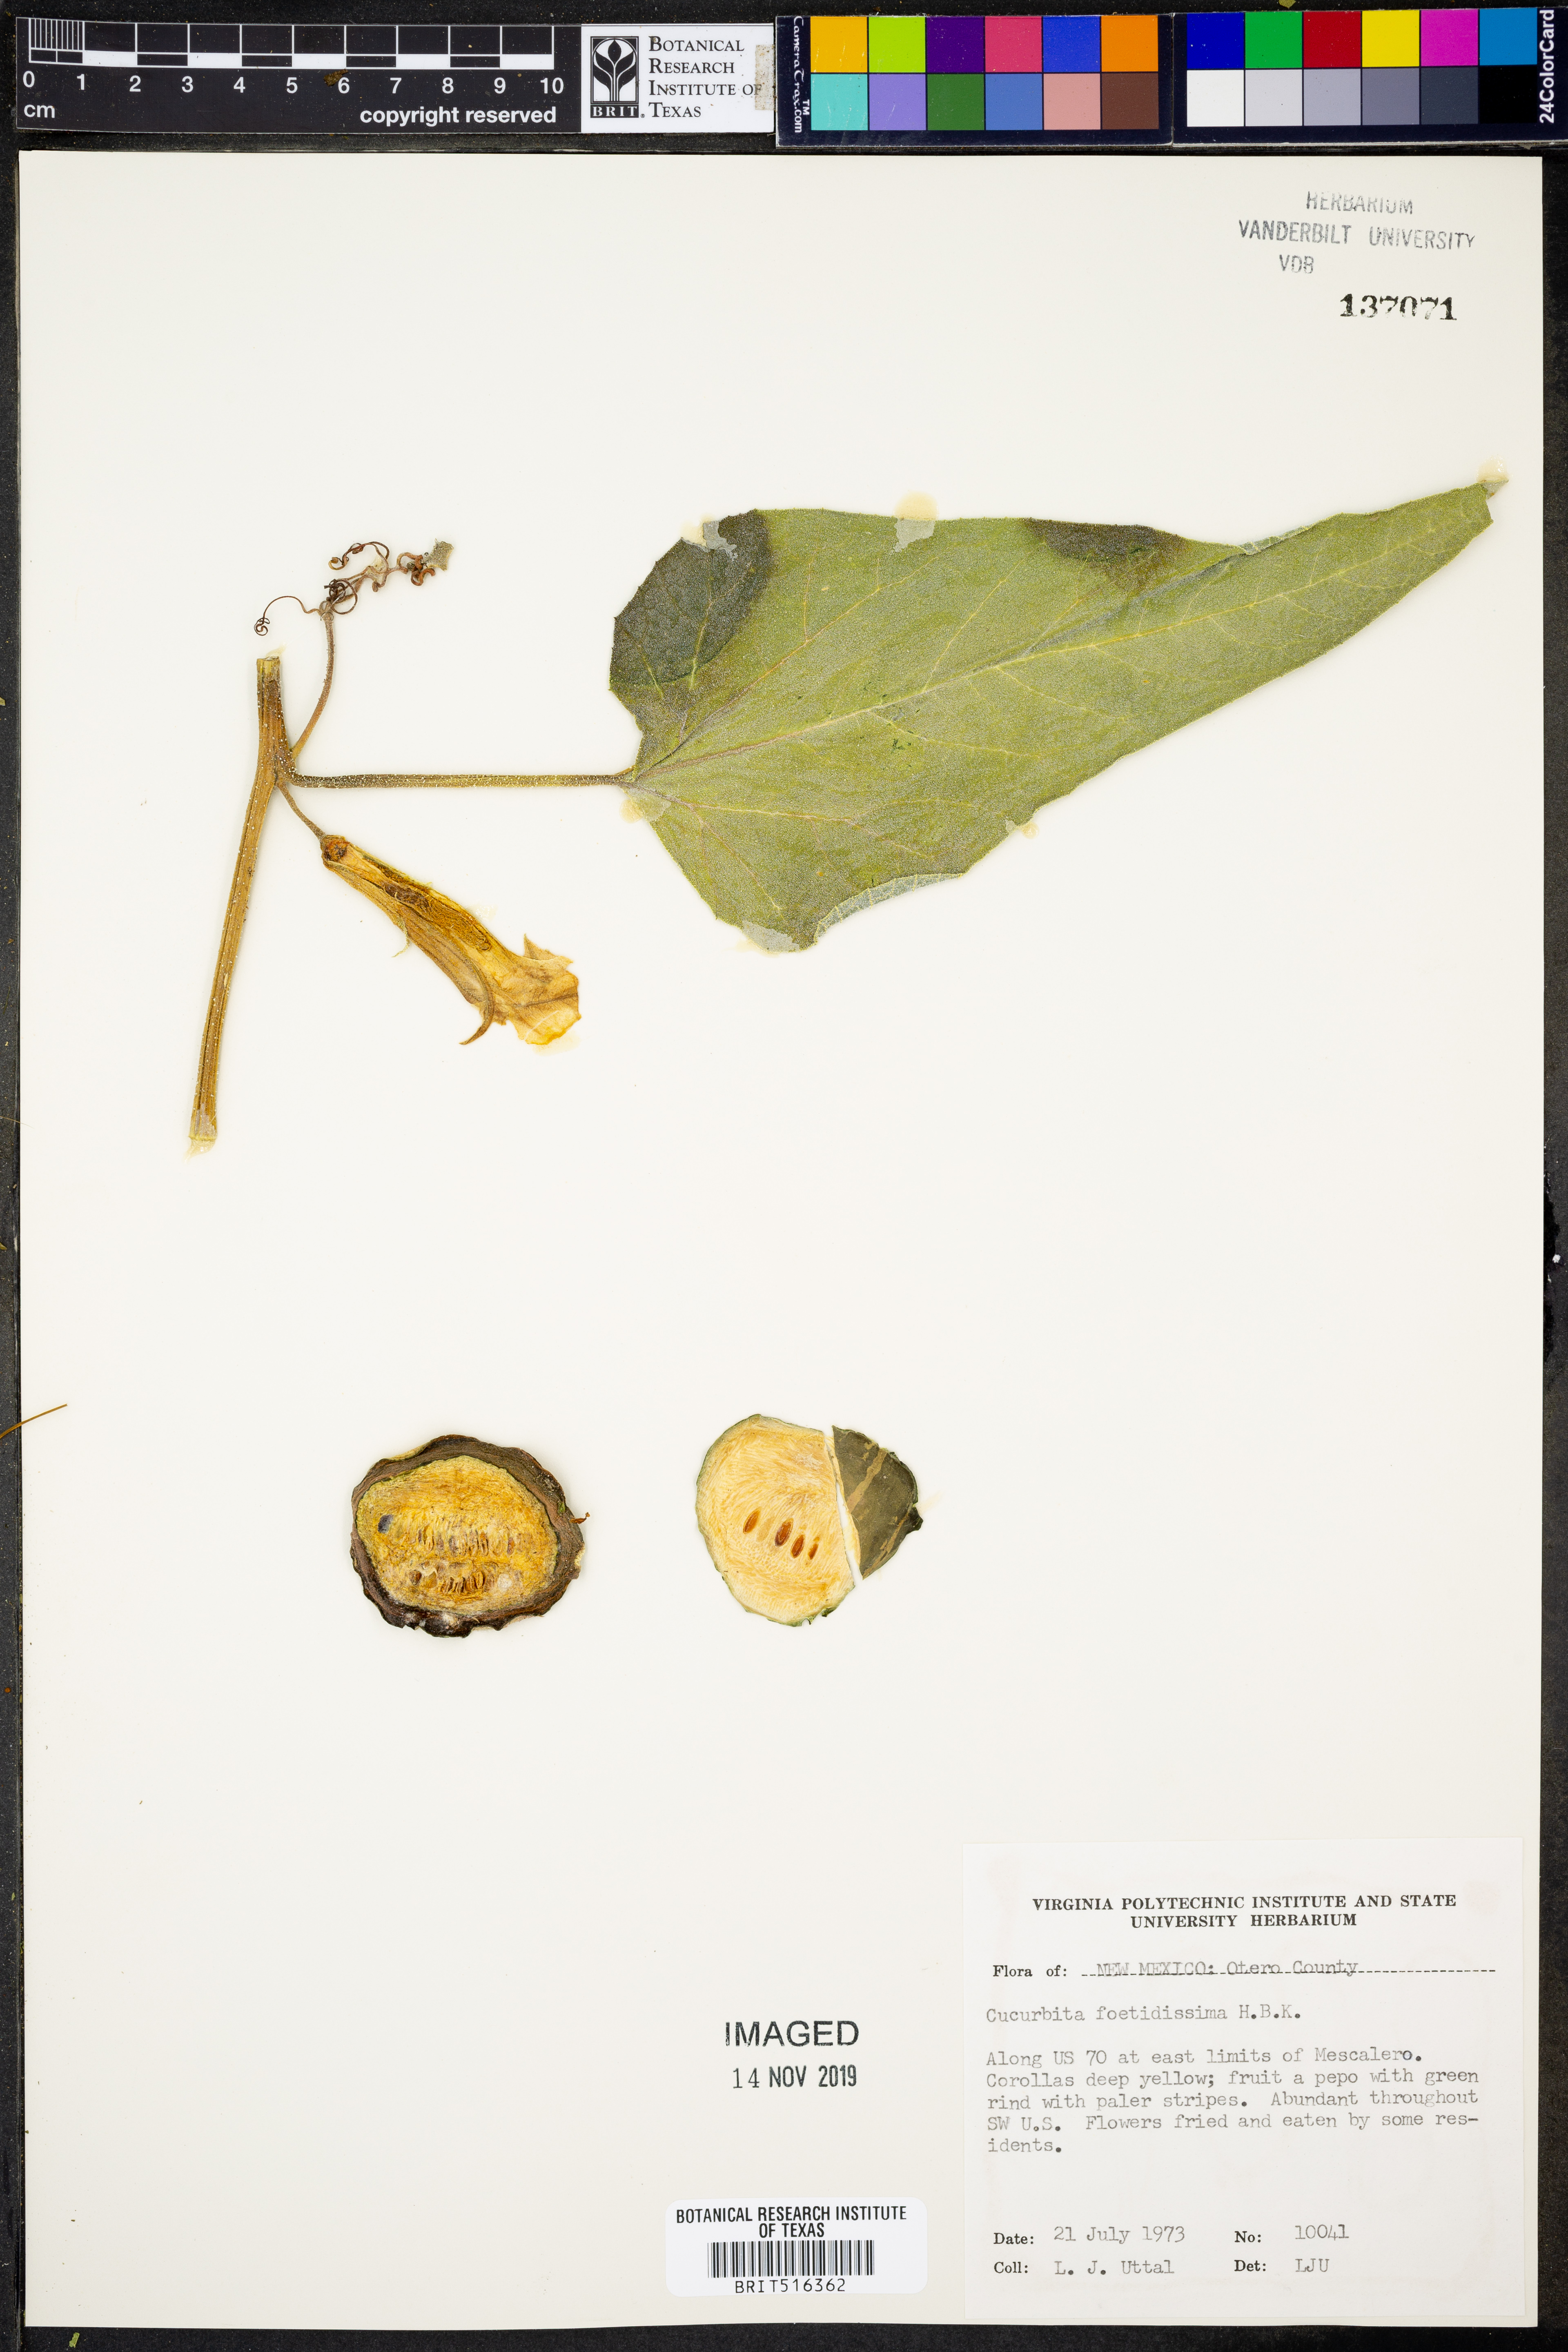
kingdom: Plantae
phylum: Tracheophyta
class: Magnoliopsida
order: Cucurbitales
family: Cucurbitaceae
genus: Cucurbita
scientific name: Cucurbita foetidissima
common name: Buffalo gourd
